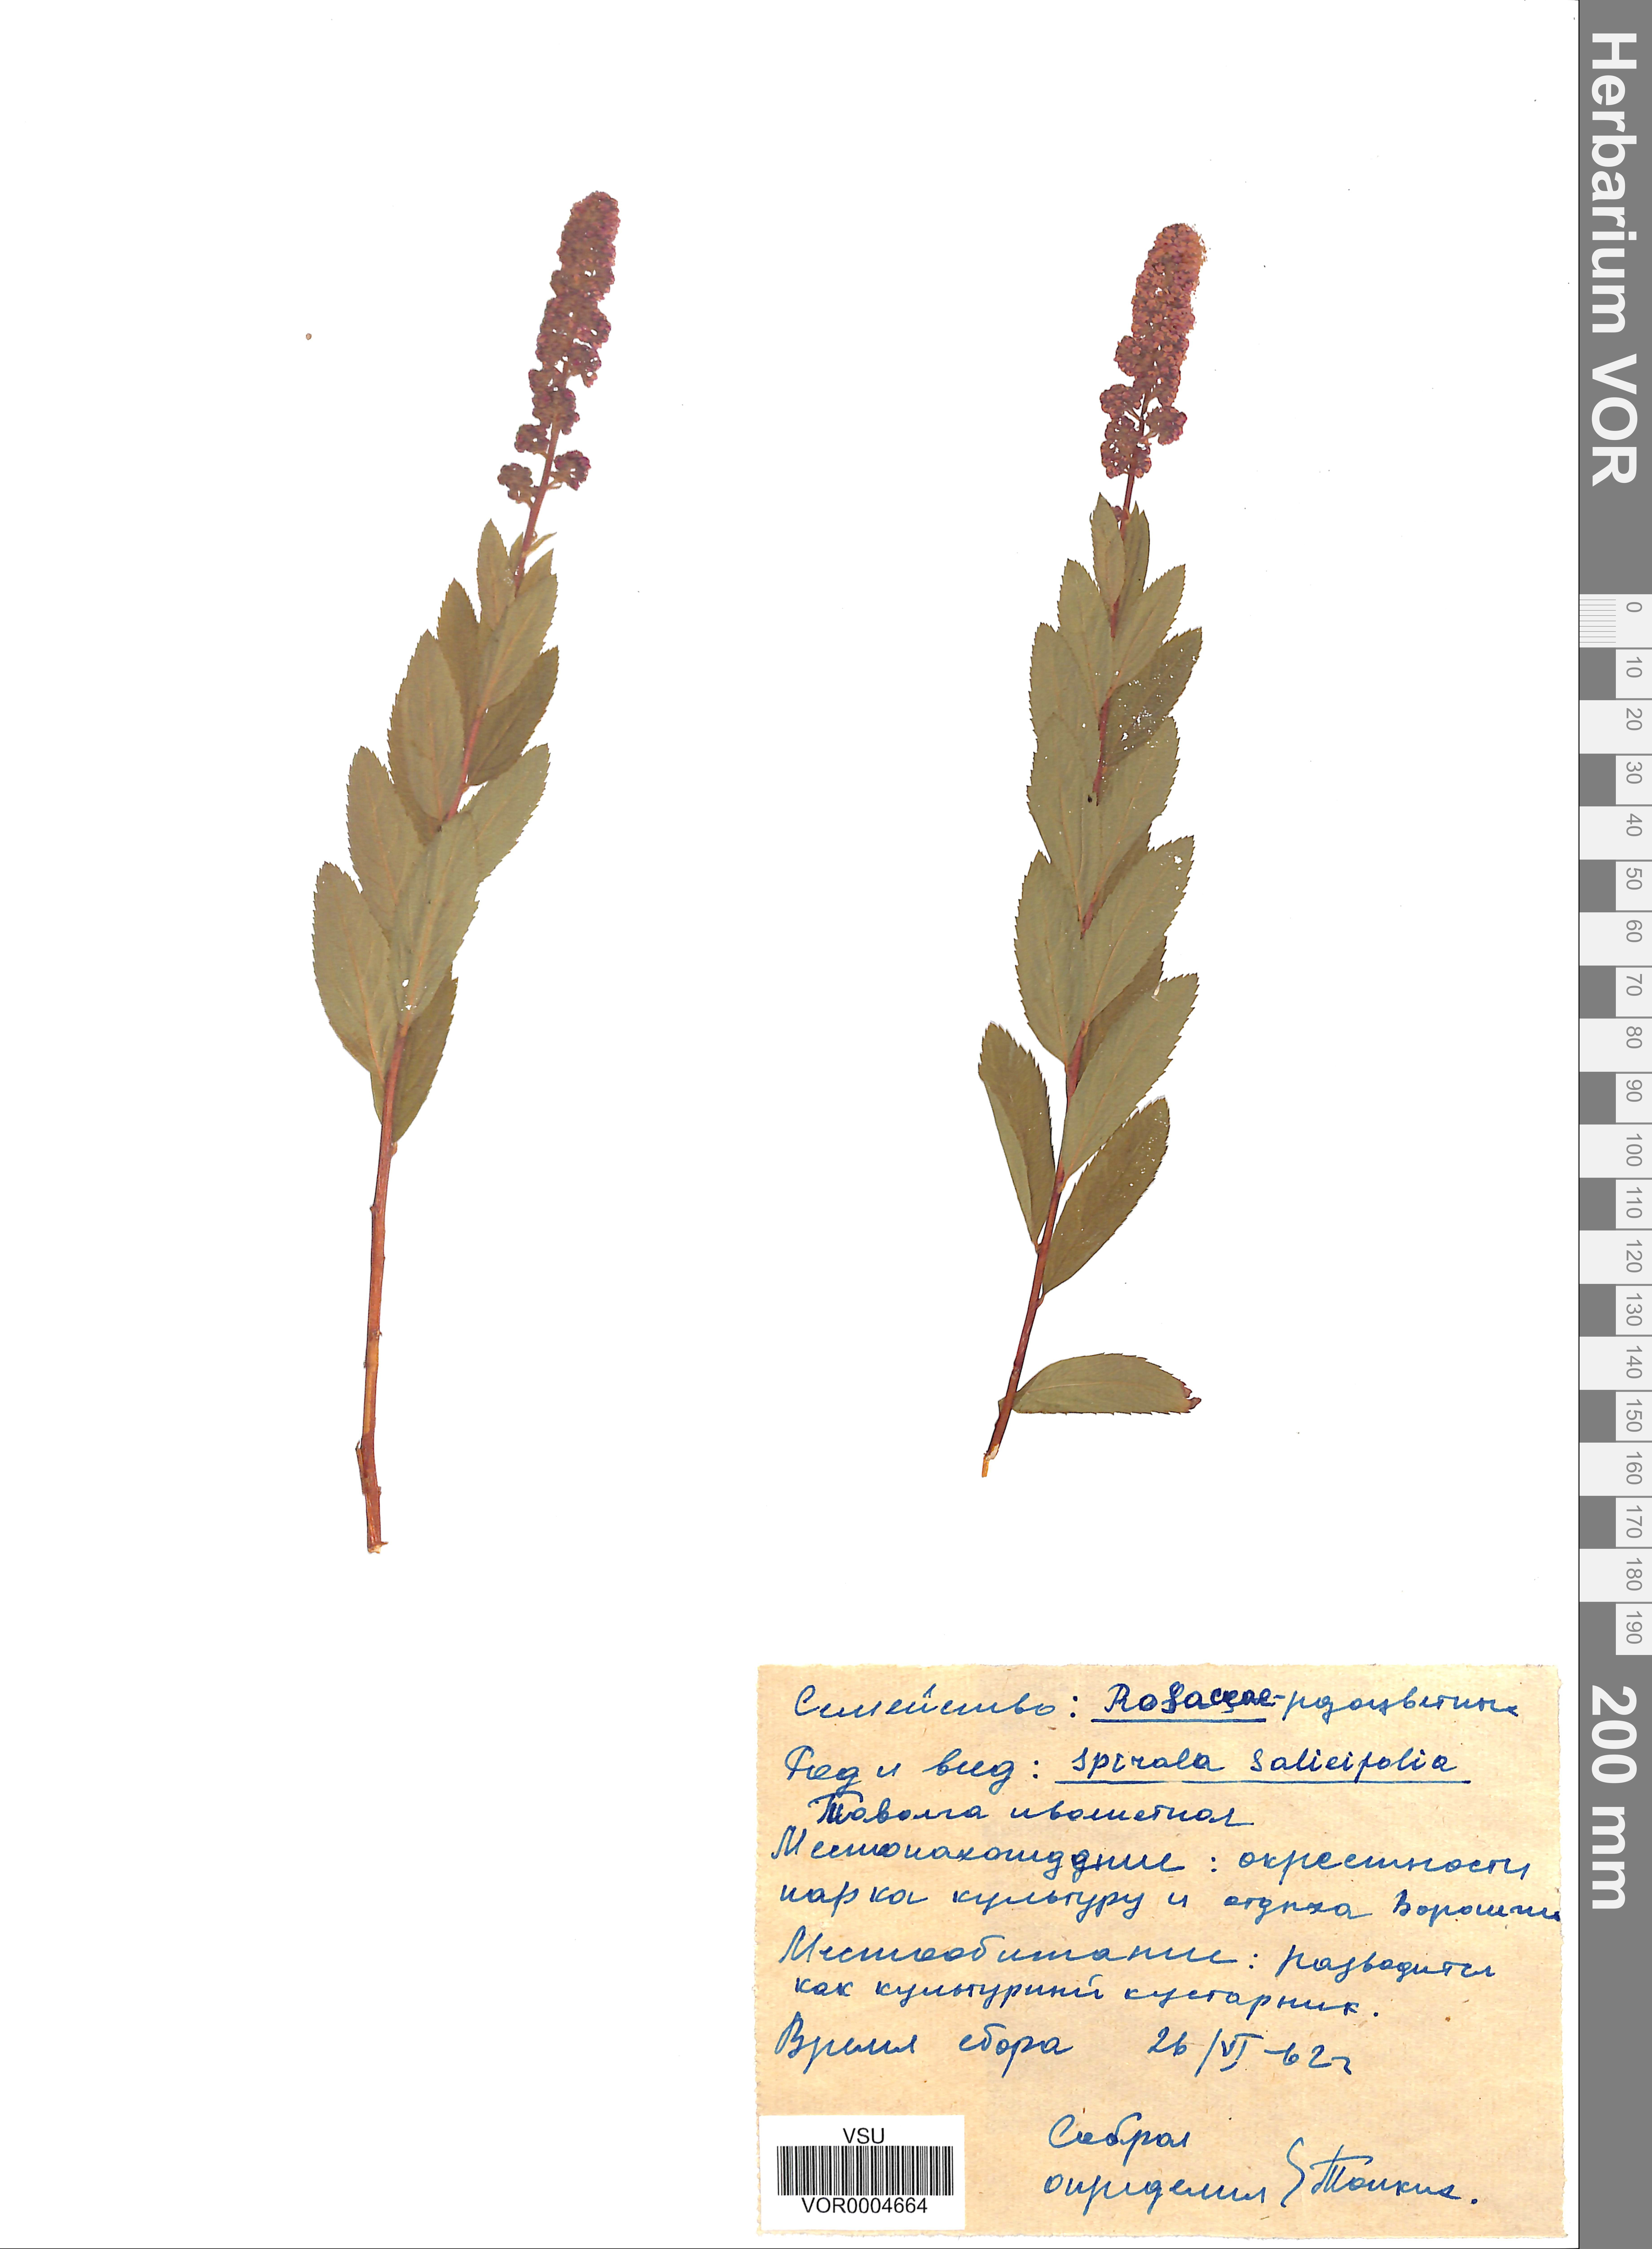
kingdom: Plantae
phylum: Tracheophyta
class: Magnoliopsida
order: Rosales
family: Rosaceae
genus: Spiraea
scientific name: Spiraea salicifolia
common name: Bridewort
